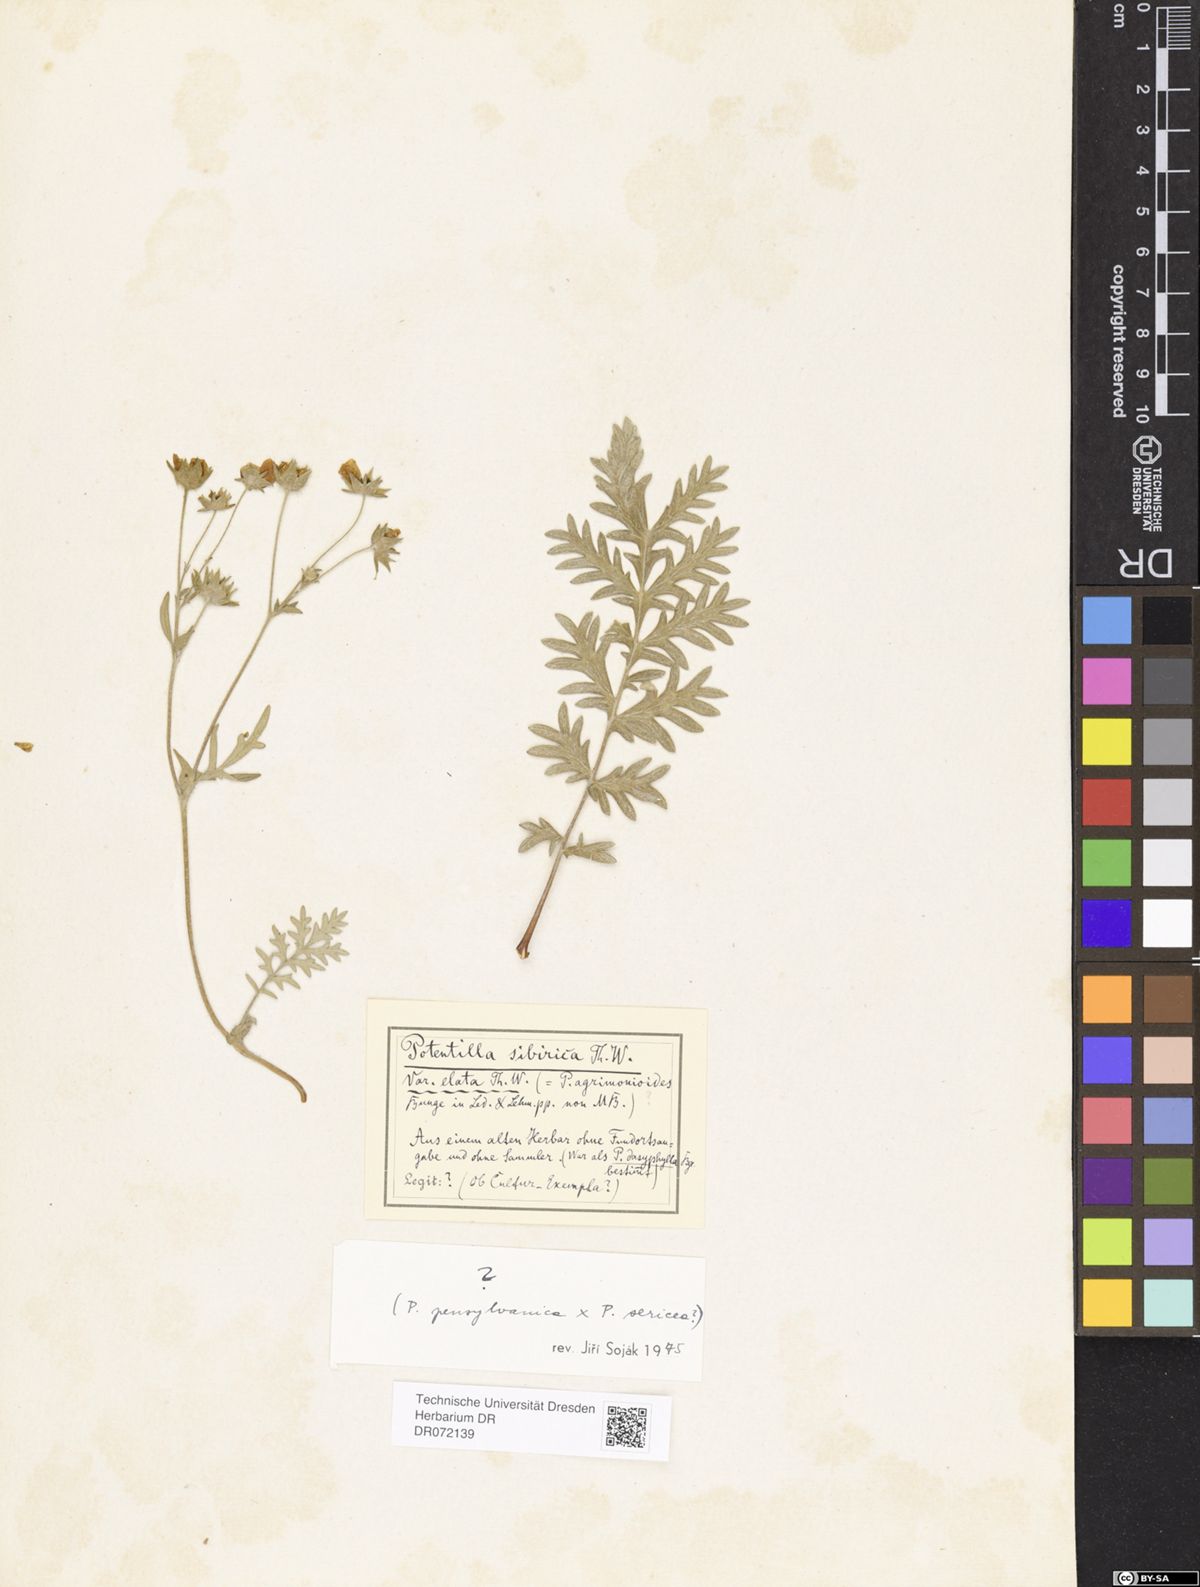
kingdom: Plantae
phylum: Tracheophyta
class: Magnoliopsida
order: Rosales
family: Rosaceae
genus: Potentilla
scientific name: Potentilla
